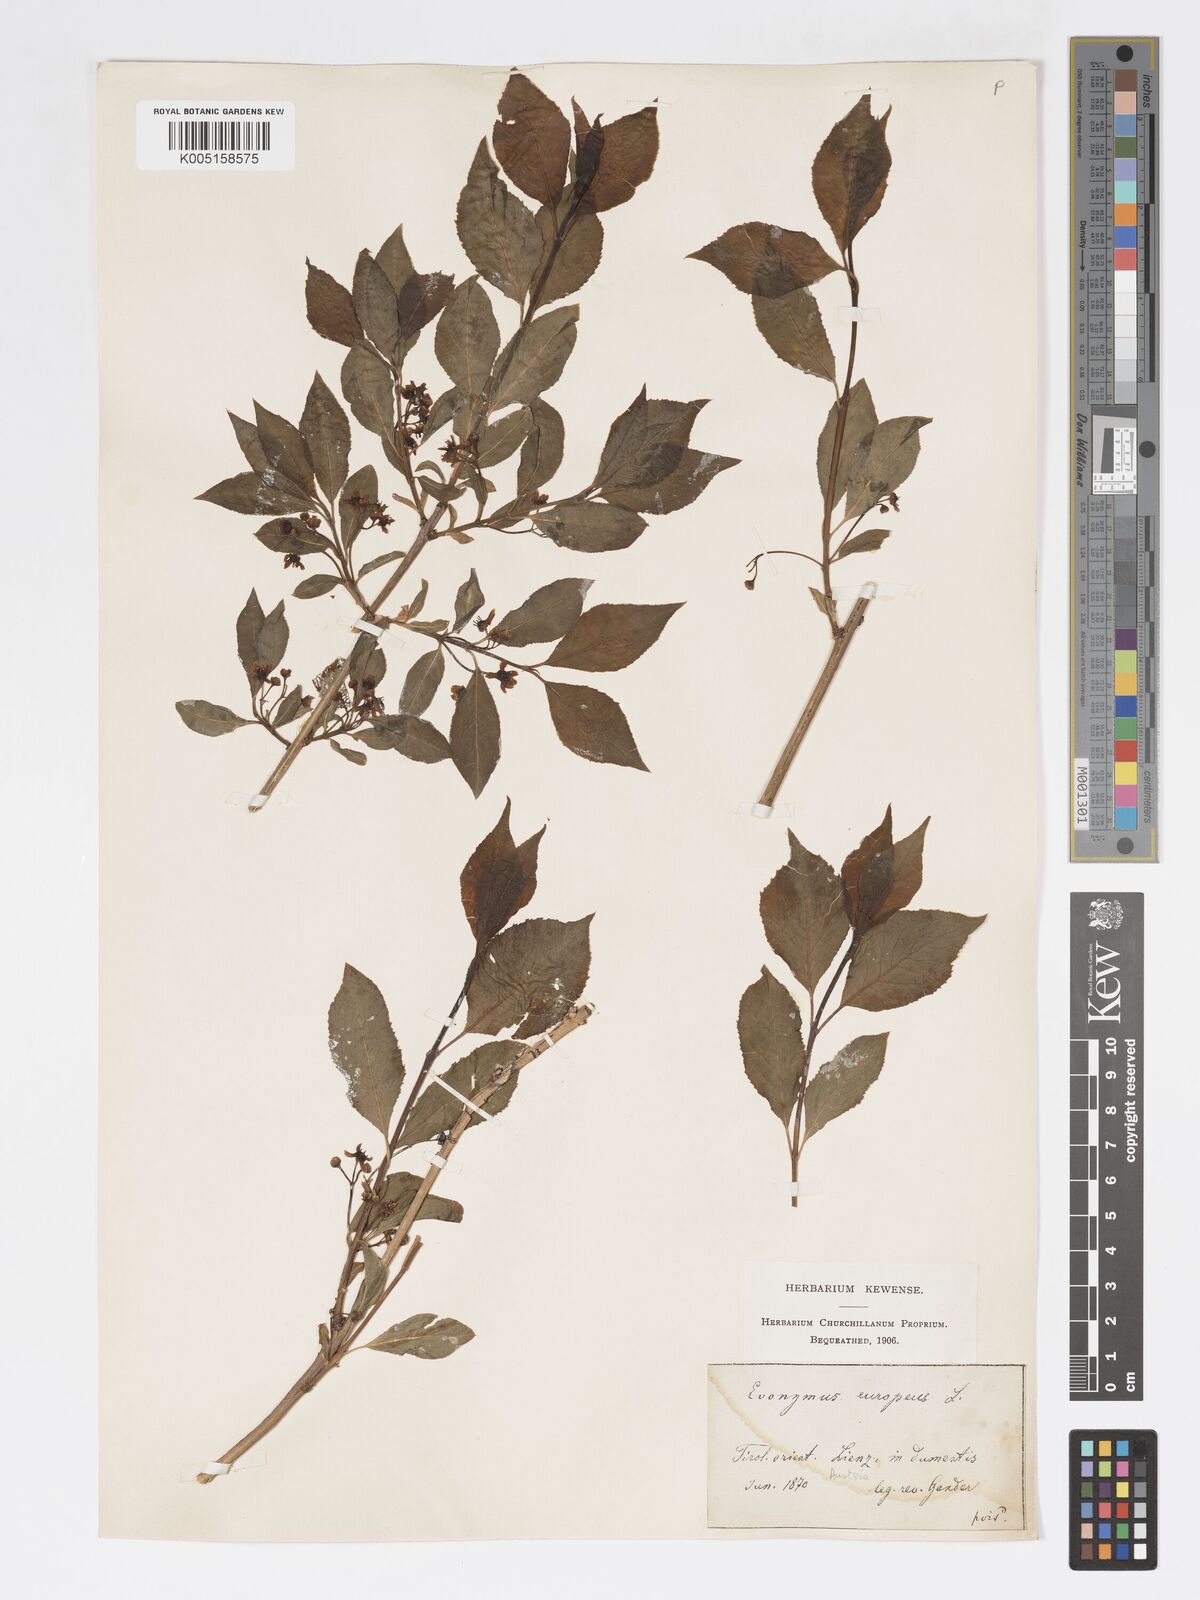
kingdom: Plantae
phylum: Tracheophyta
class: Magnoliopsida
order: Celastrales
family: Celastraceae
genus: Euonymus
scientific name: Euonymus europaeus
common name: Spindle
